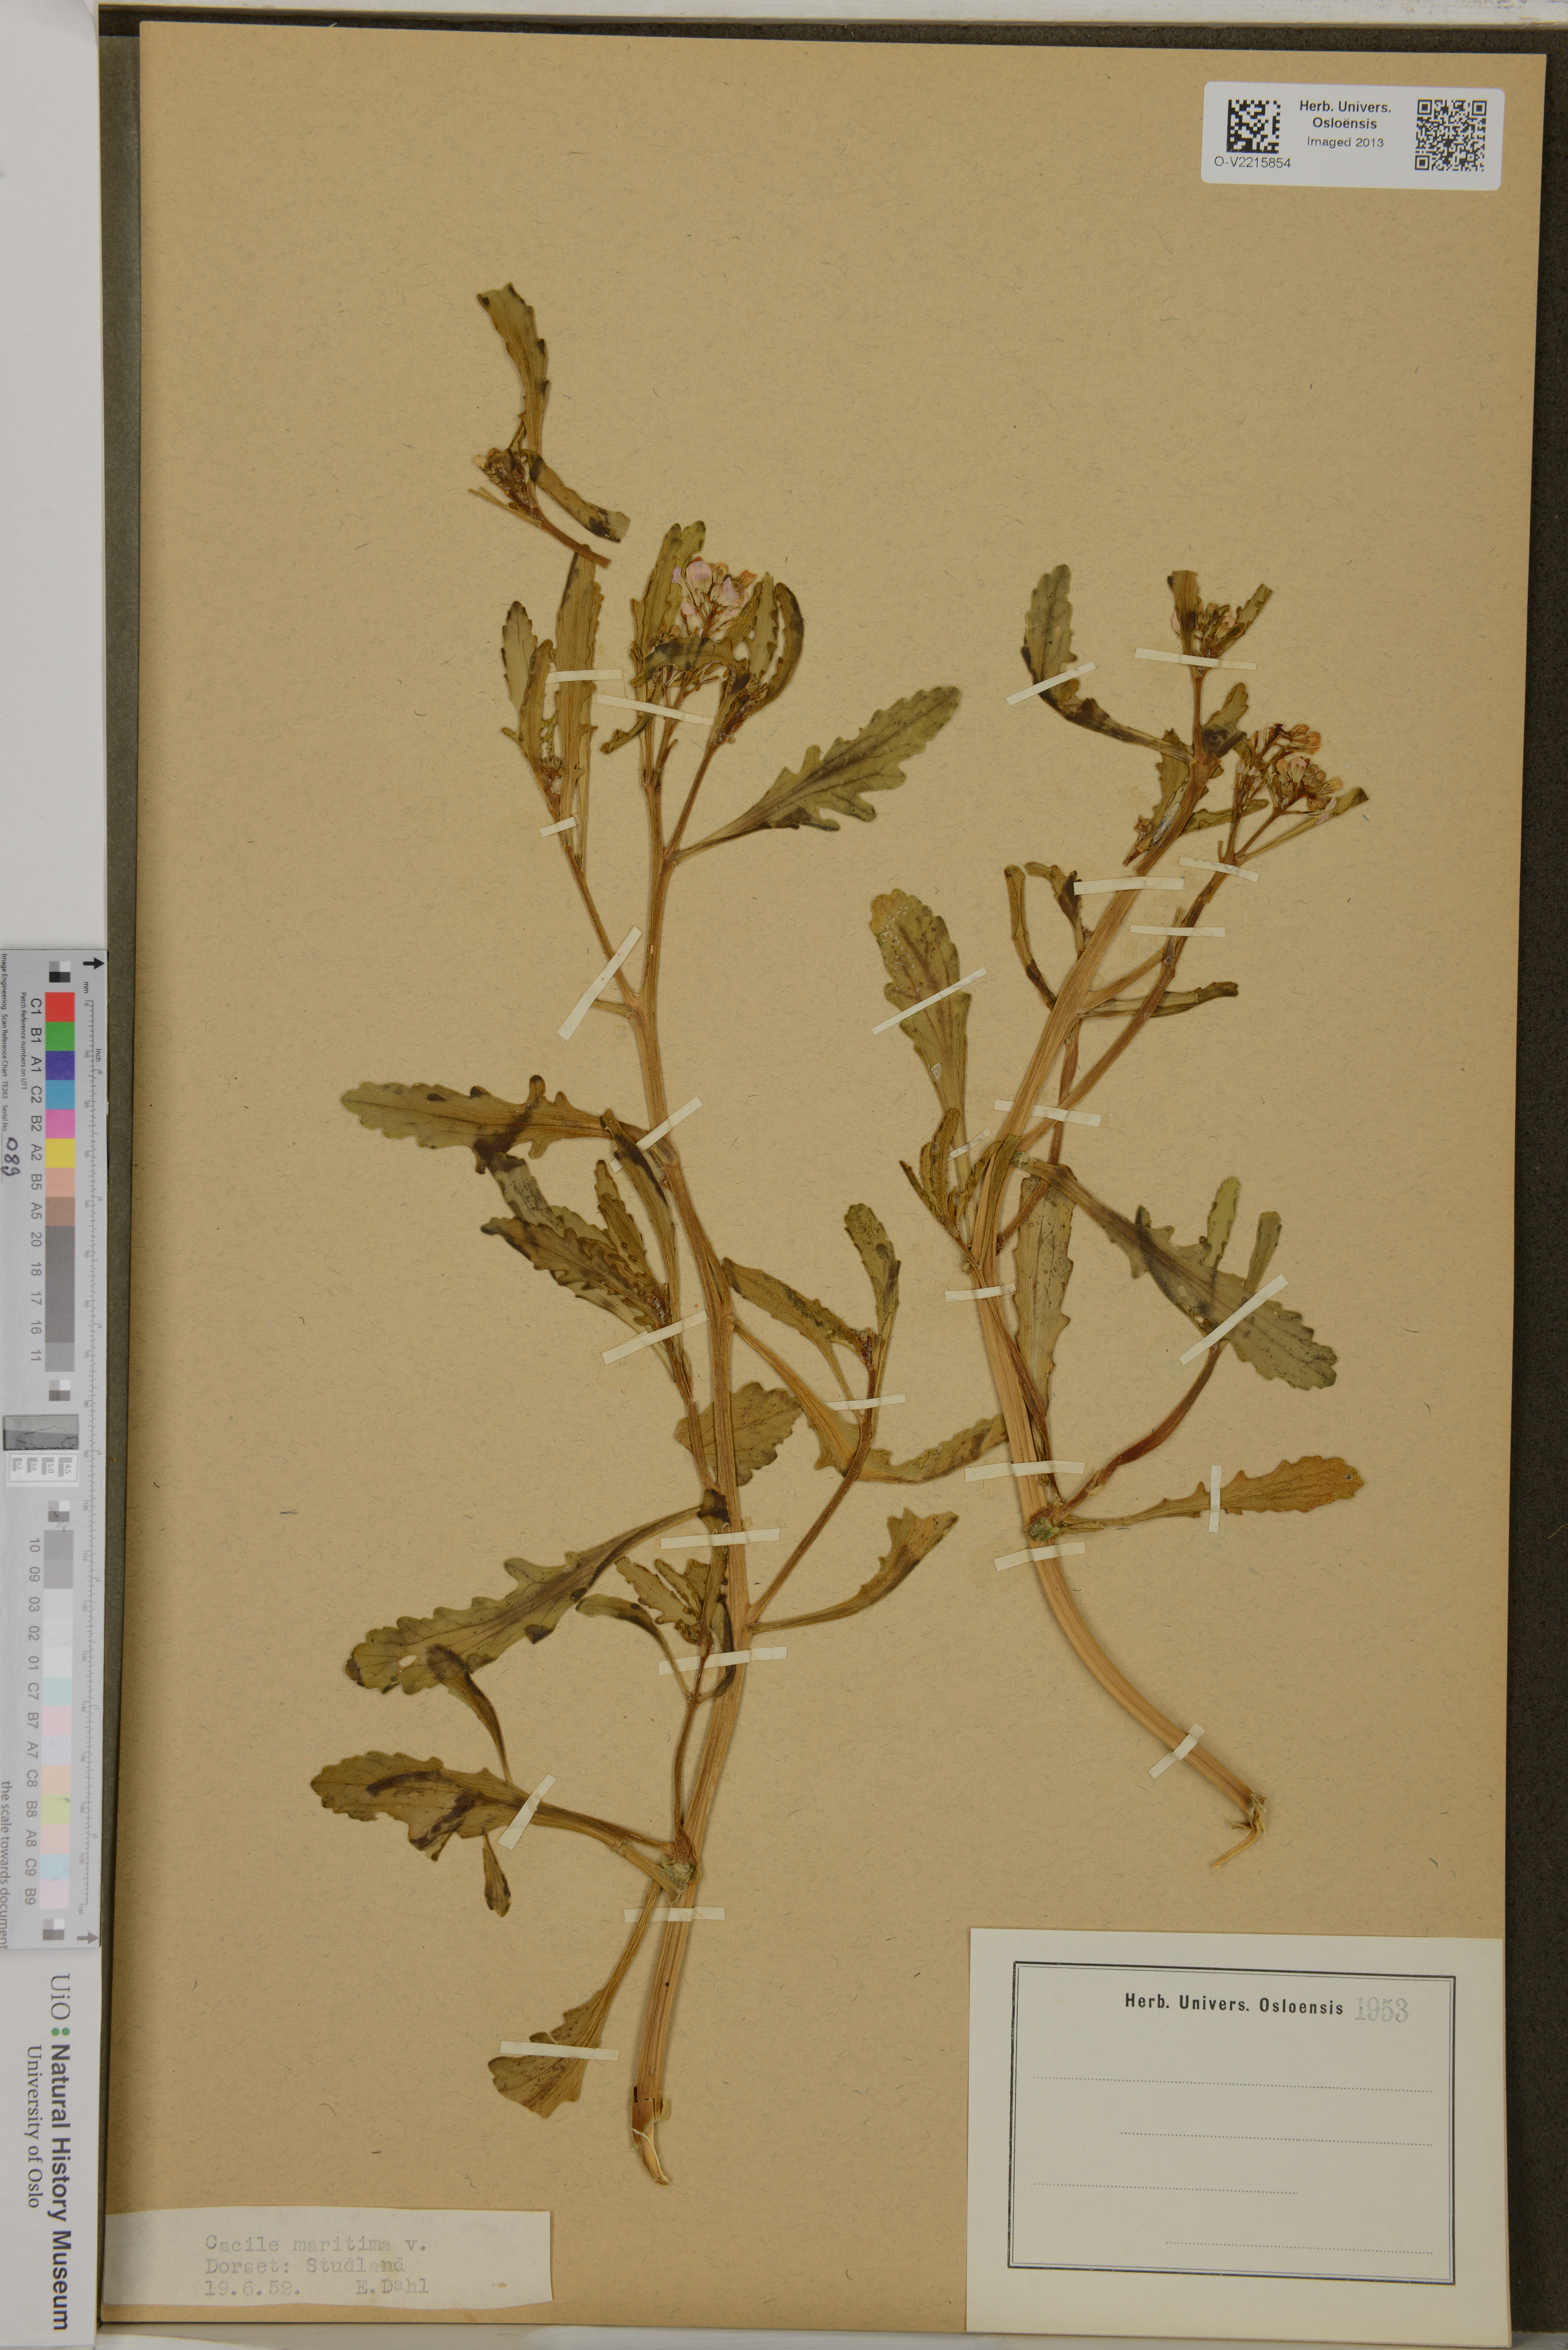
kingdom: Plantae
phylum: Tracheophyta
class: Magnoliopsida
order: Brassicales
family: Brassicaceae
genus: Cakile
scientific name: Cakile maritima
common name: Sea rocket
